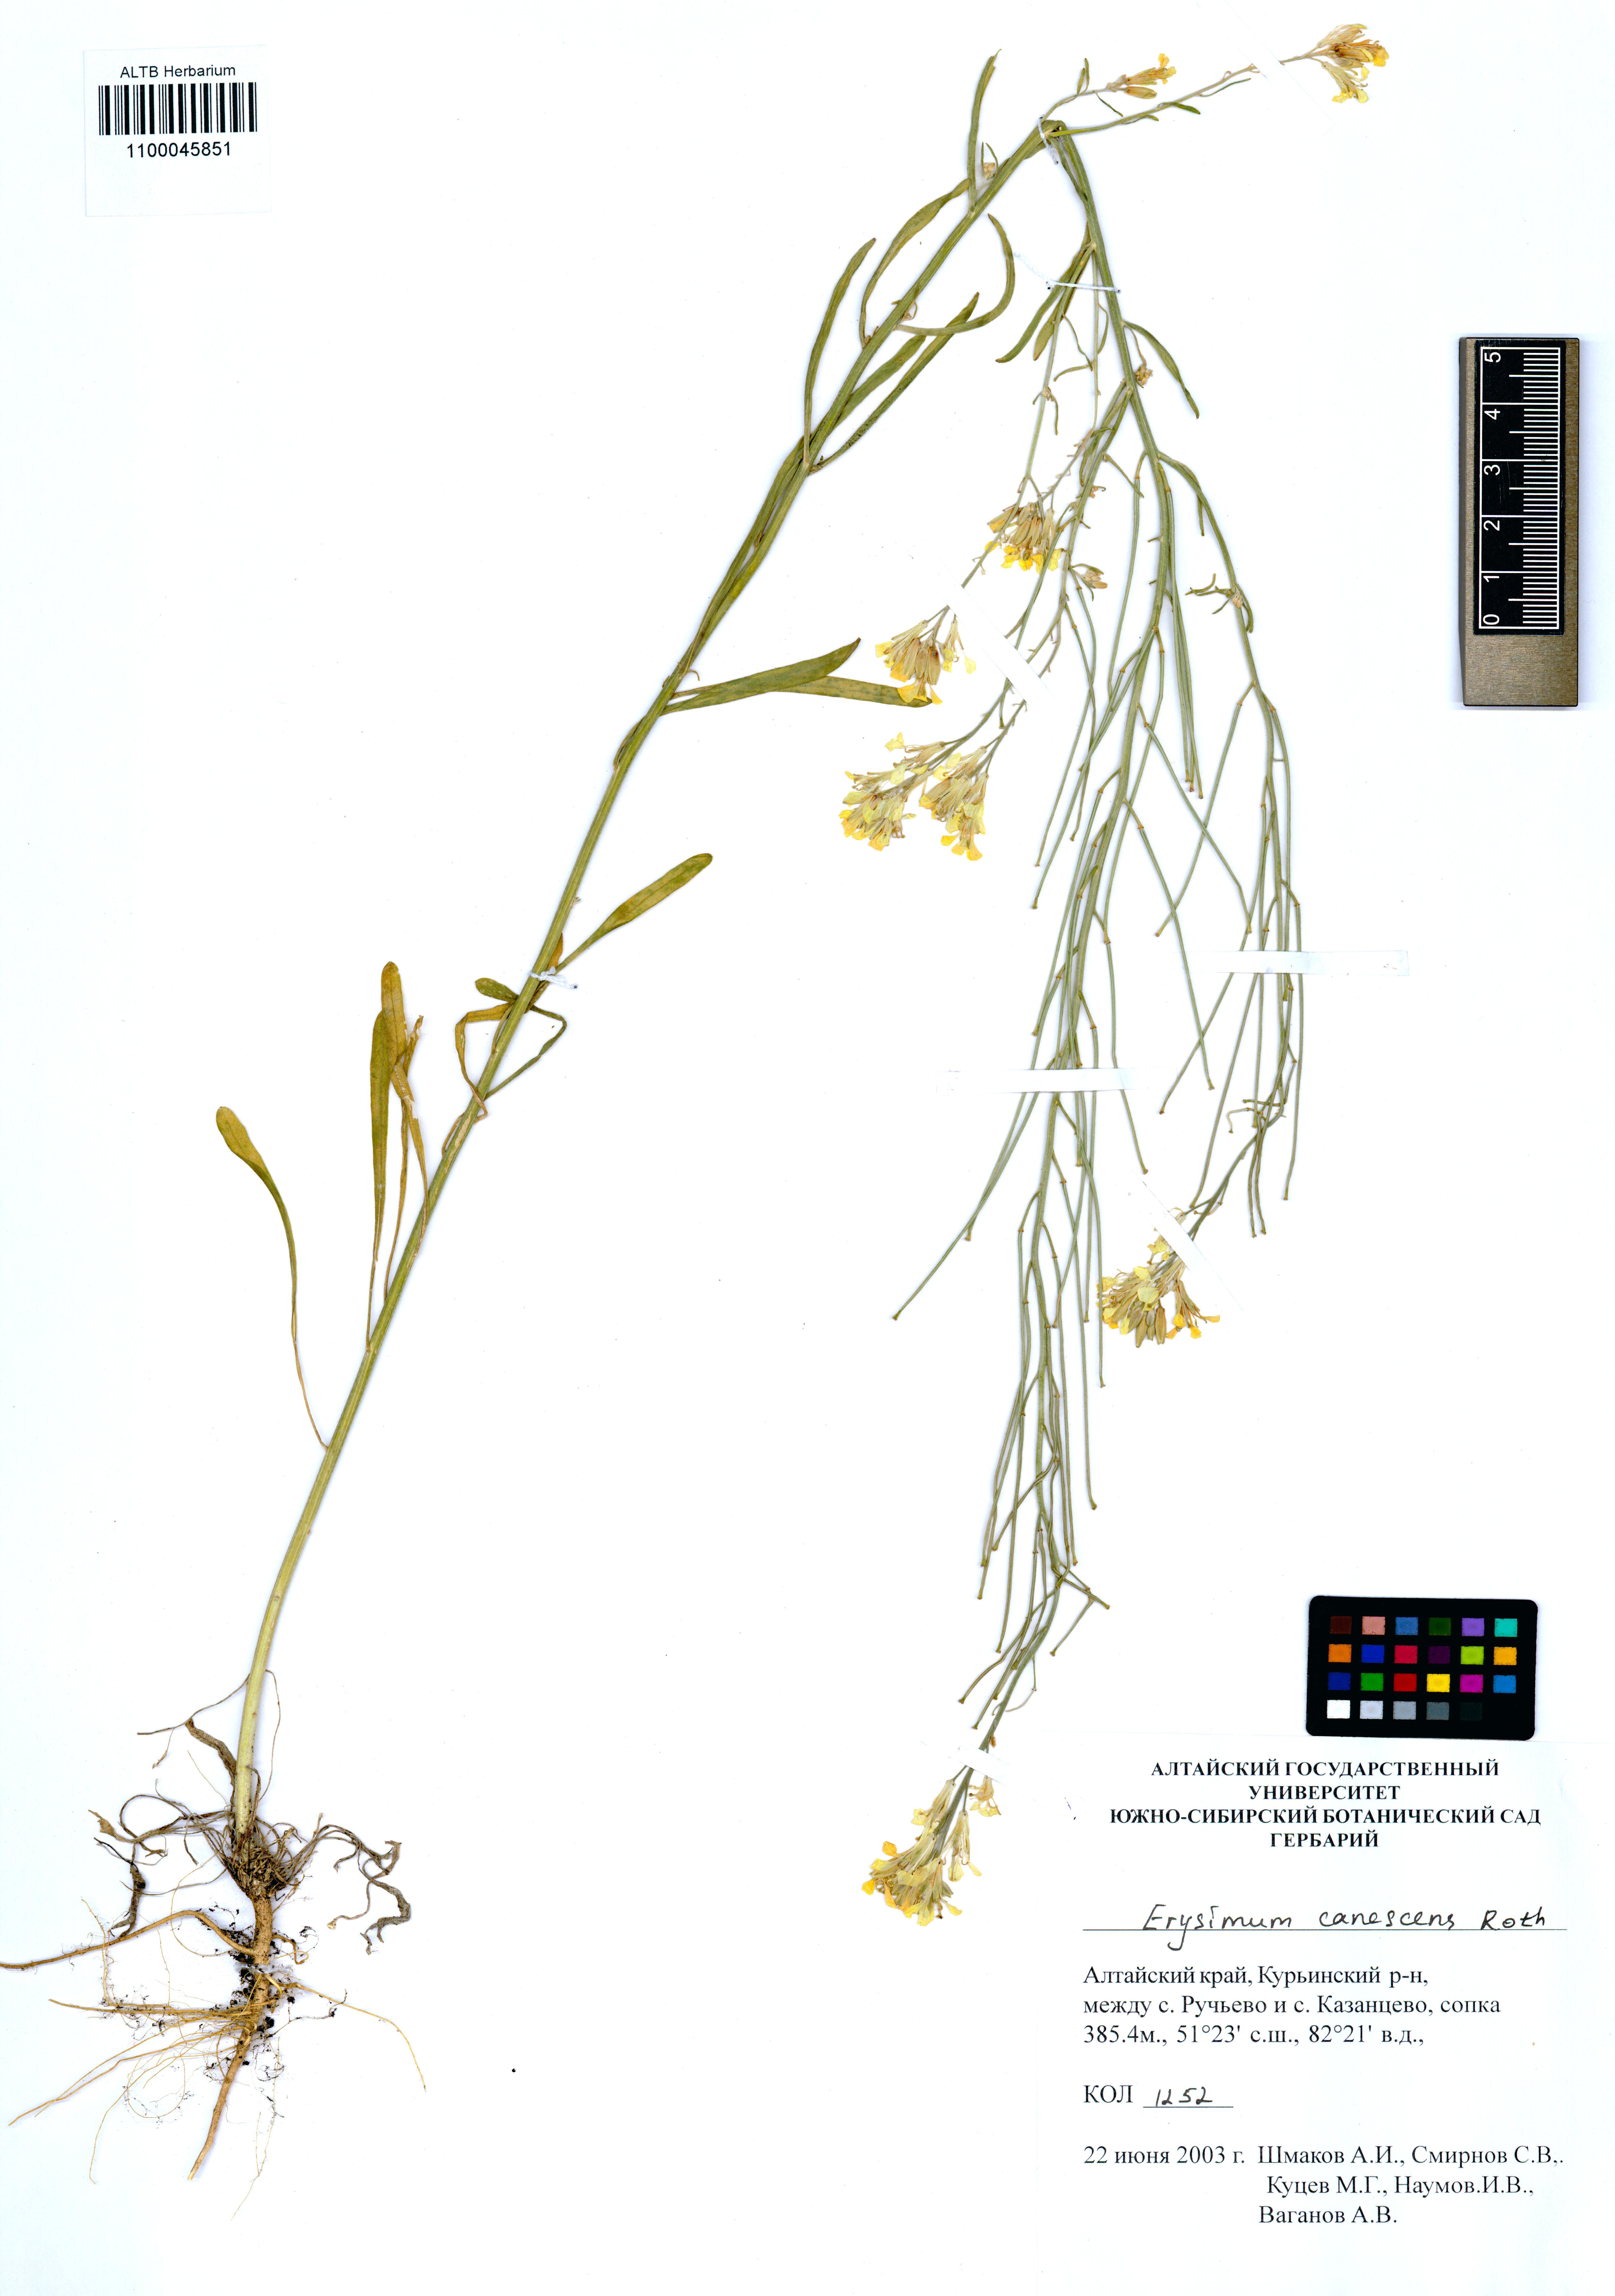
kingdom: Plantae
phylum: Tracheophyta
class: Magnoliopsida
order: Brassicales
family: Brassicaceae
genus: Erysimum
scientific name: Erysimum canescens
